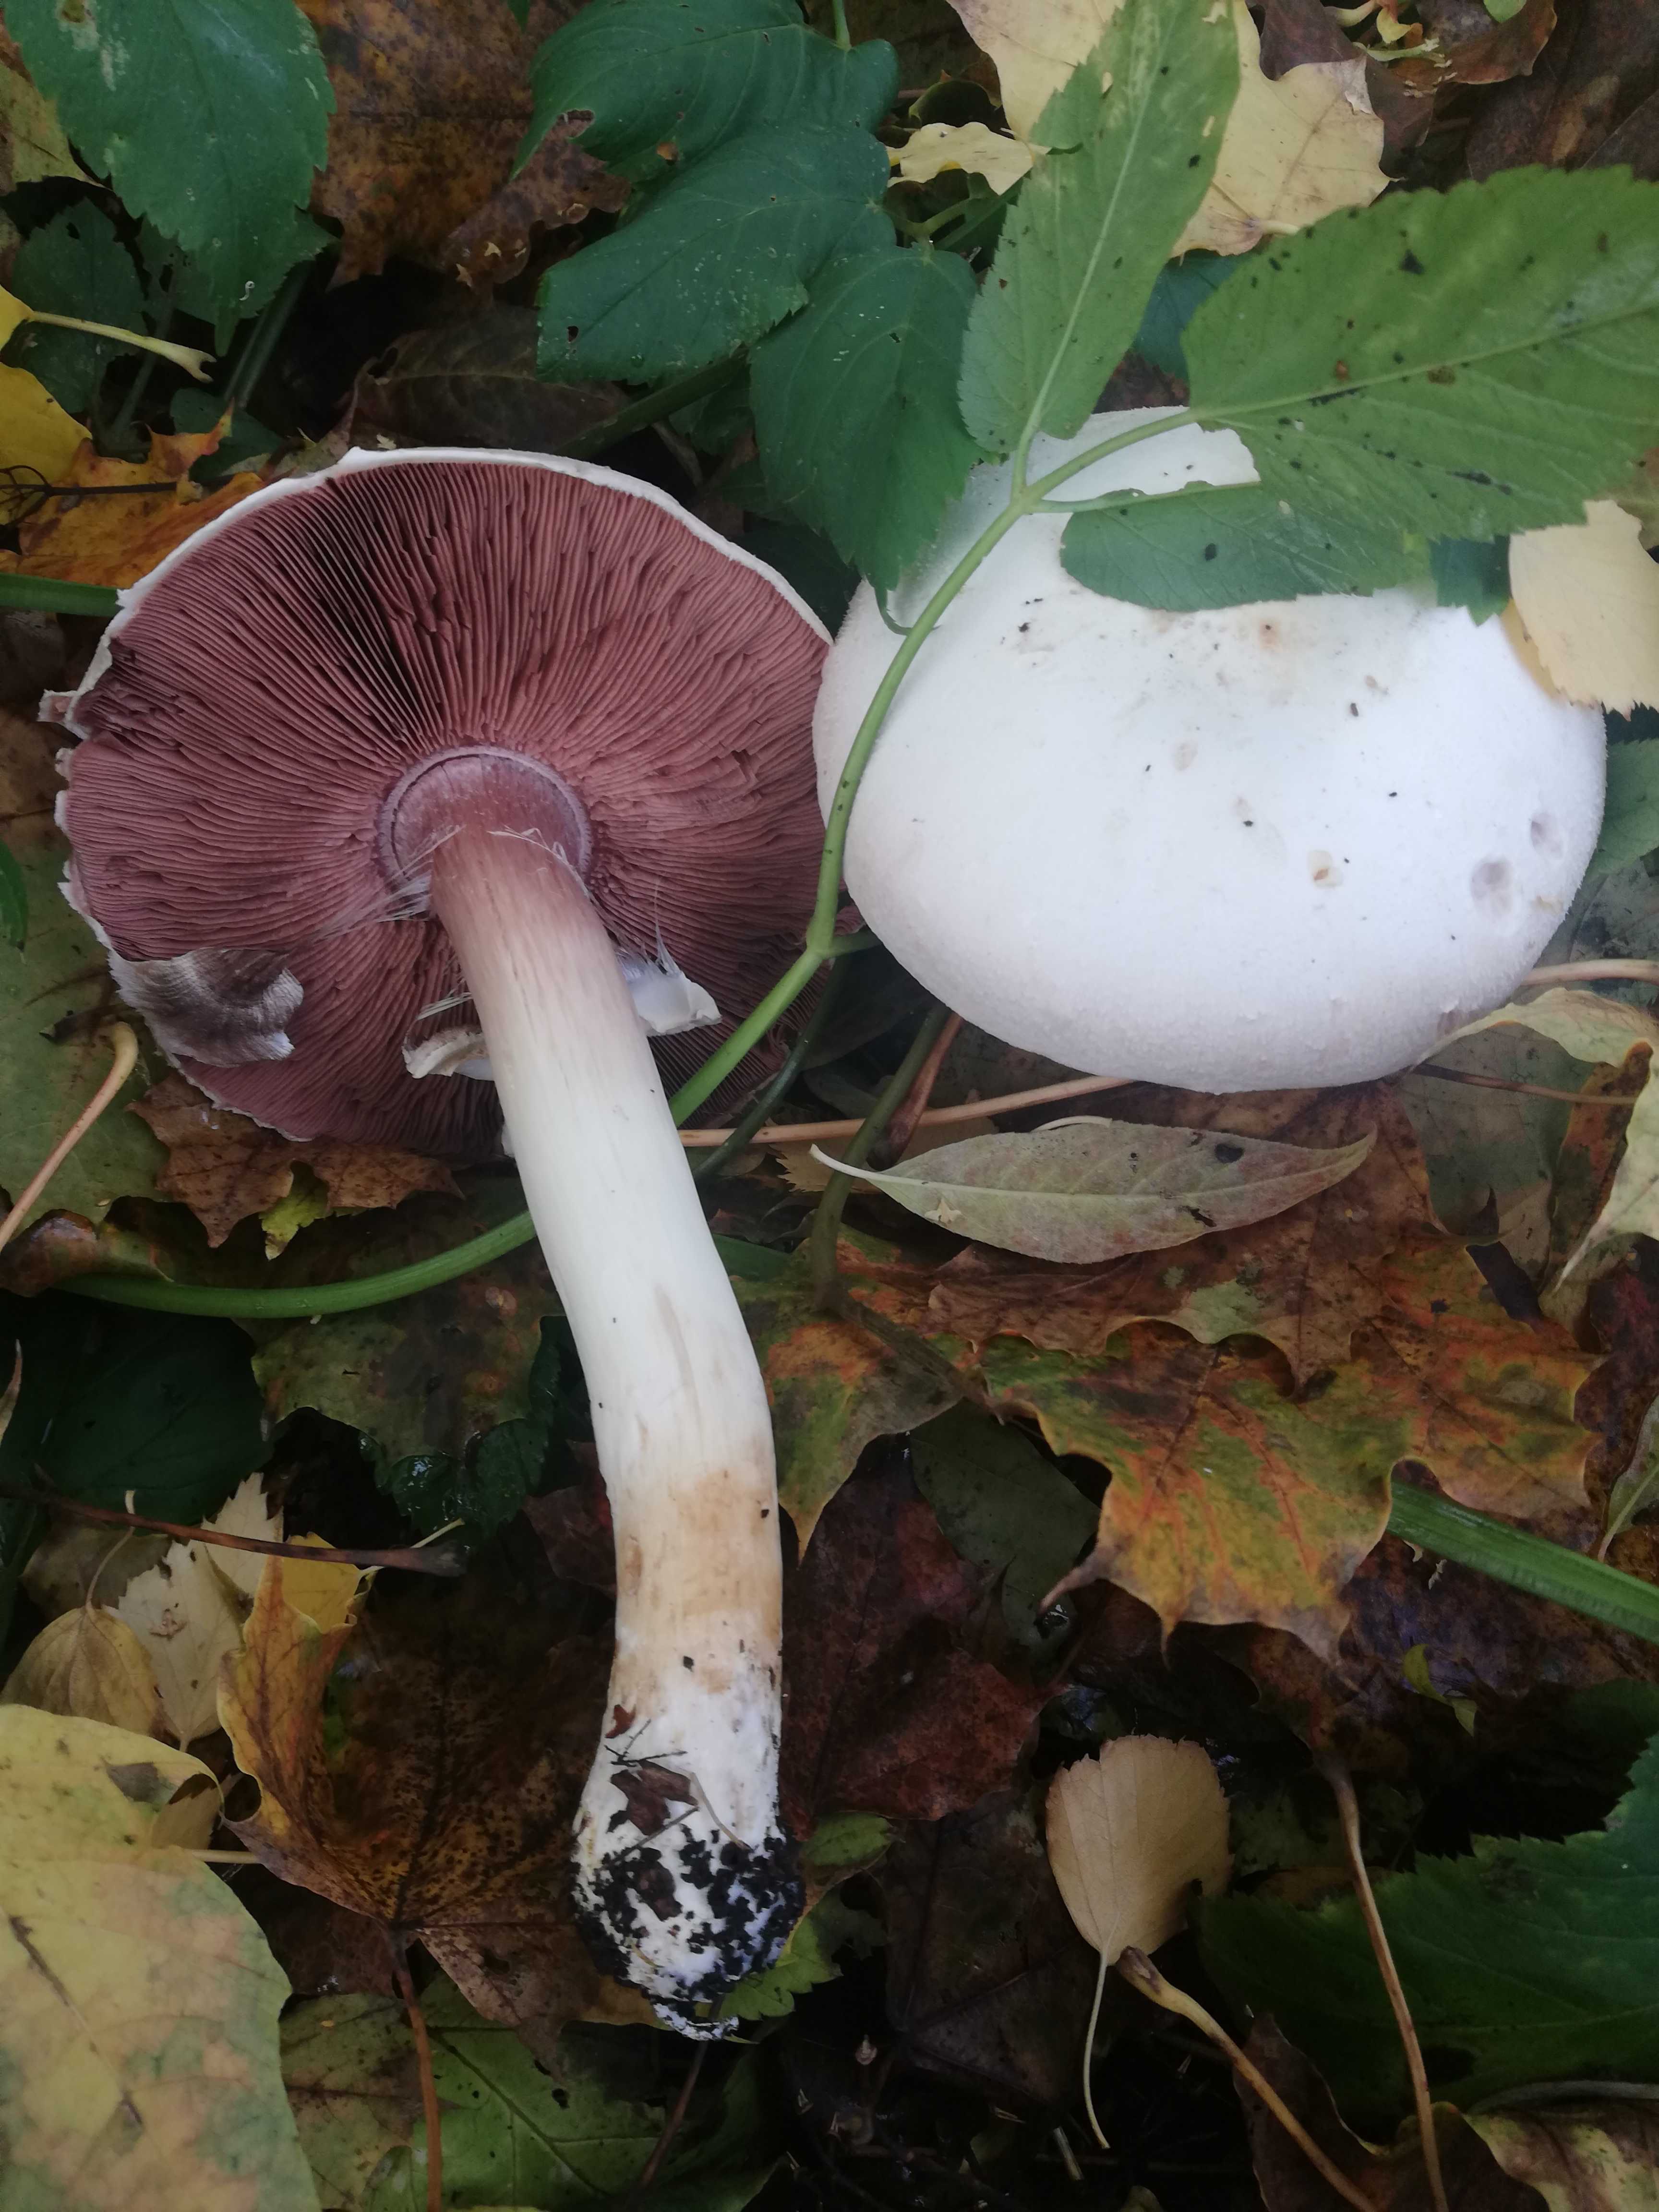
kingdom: Fungi
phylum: Basidiomycota
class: Agaricomycetes
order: Agaricales
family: Agaricaceae
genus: Agaricus
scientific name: Agaricus
